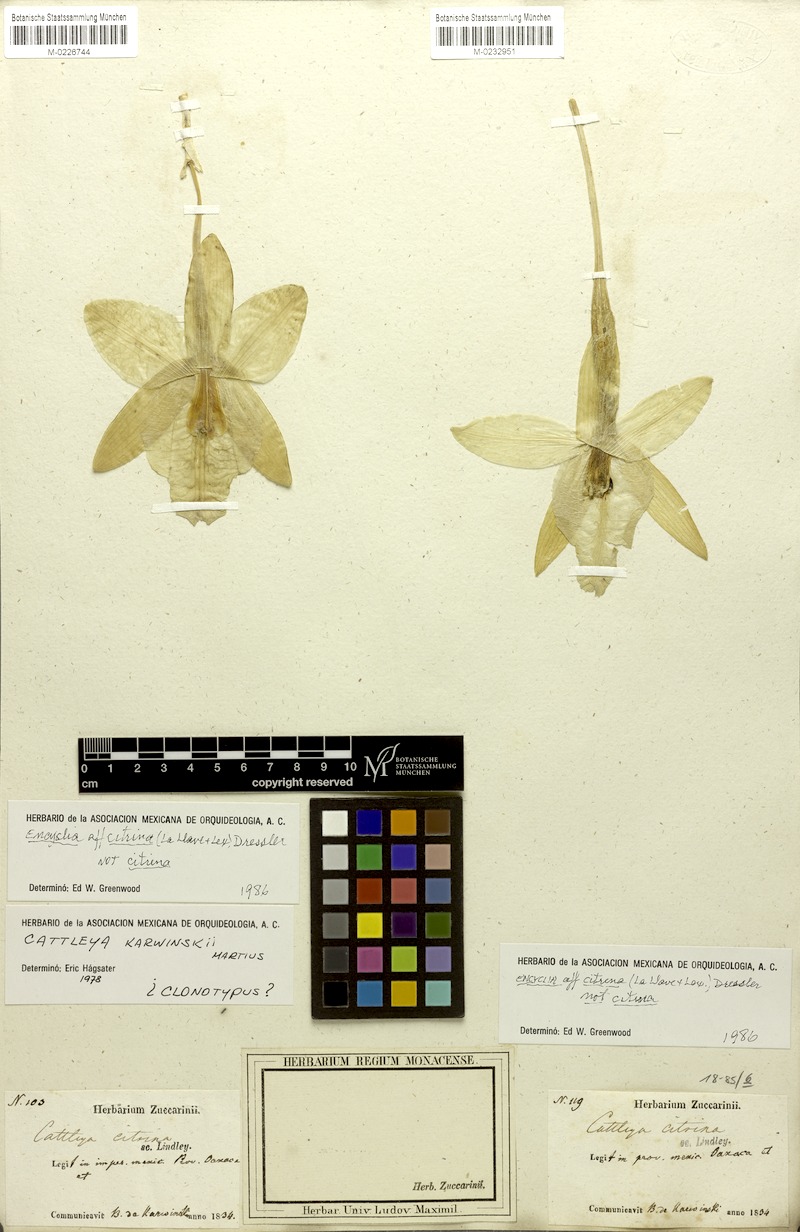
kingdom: Plantae
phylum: Tracheophyta
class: Liliopsida
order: Asparagales
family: Orchidaceae
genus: Prosthechea
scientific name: Prosthechea karwinskii
